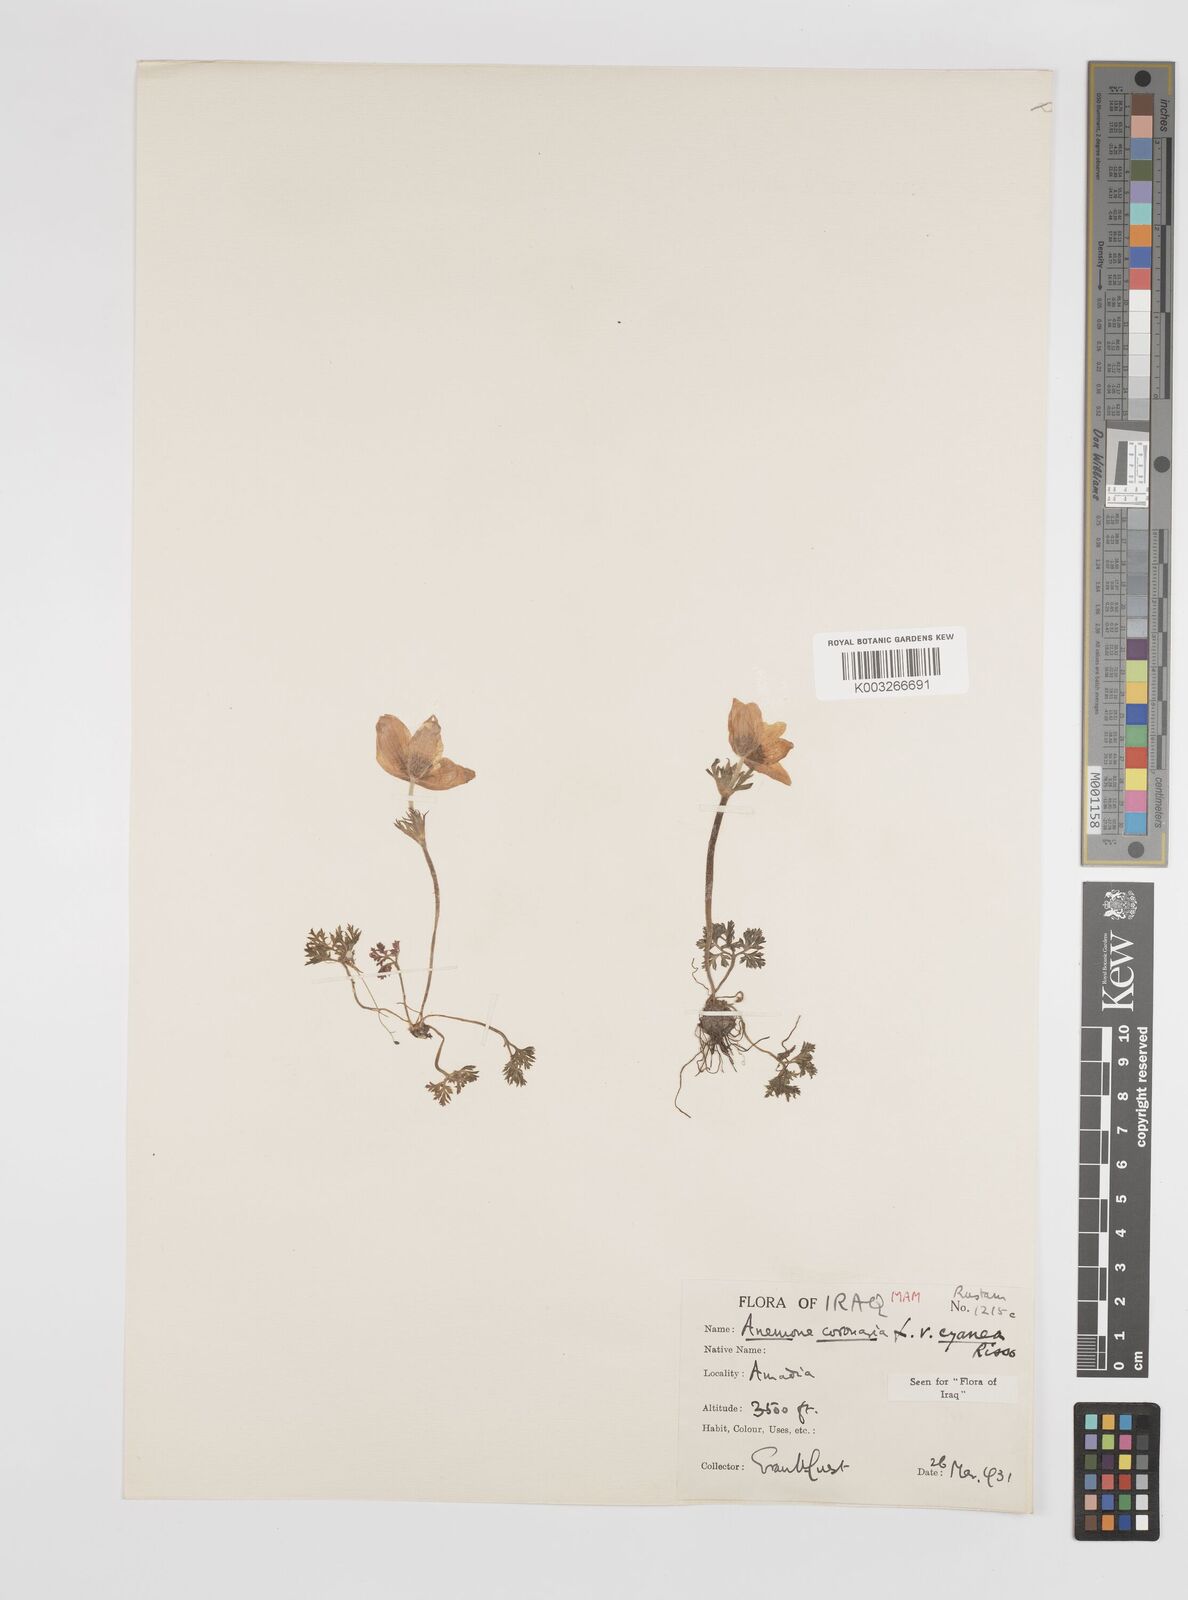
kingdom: Plantae
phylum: Tracheophyta
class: Magnoliopsida
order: Ranunculales
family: Ranunculaceae
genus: Anemone
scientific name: Anemone coronaria
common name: Poppy anemone
